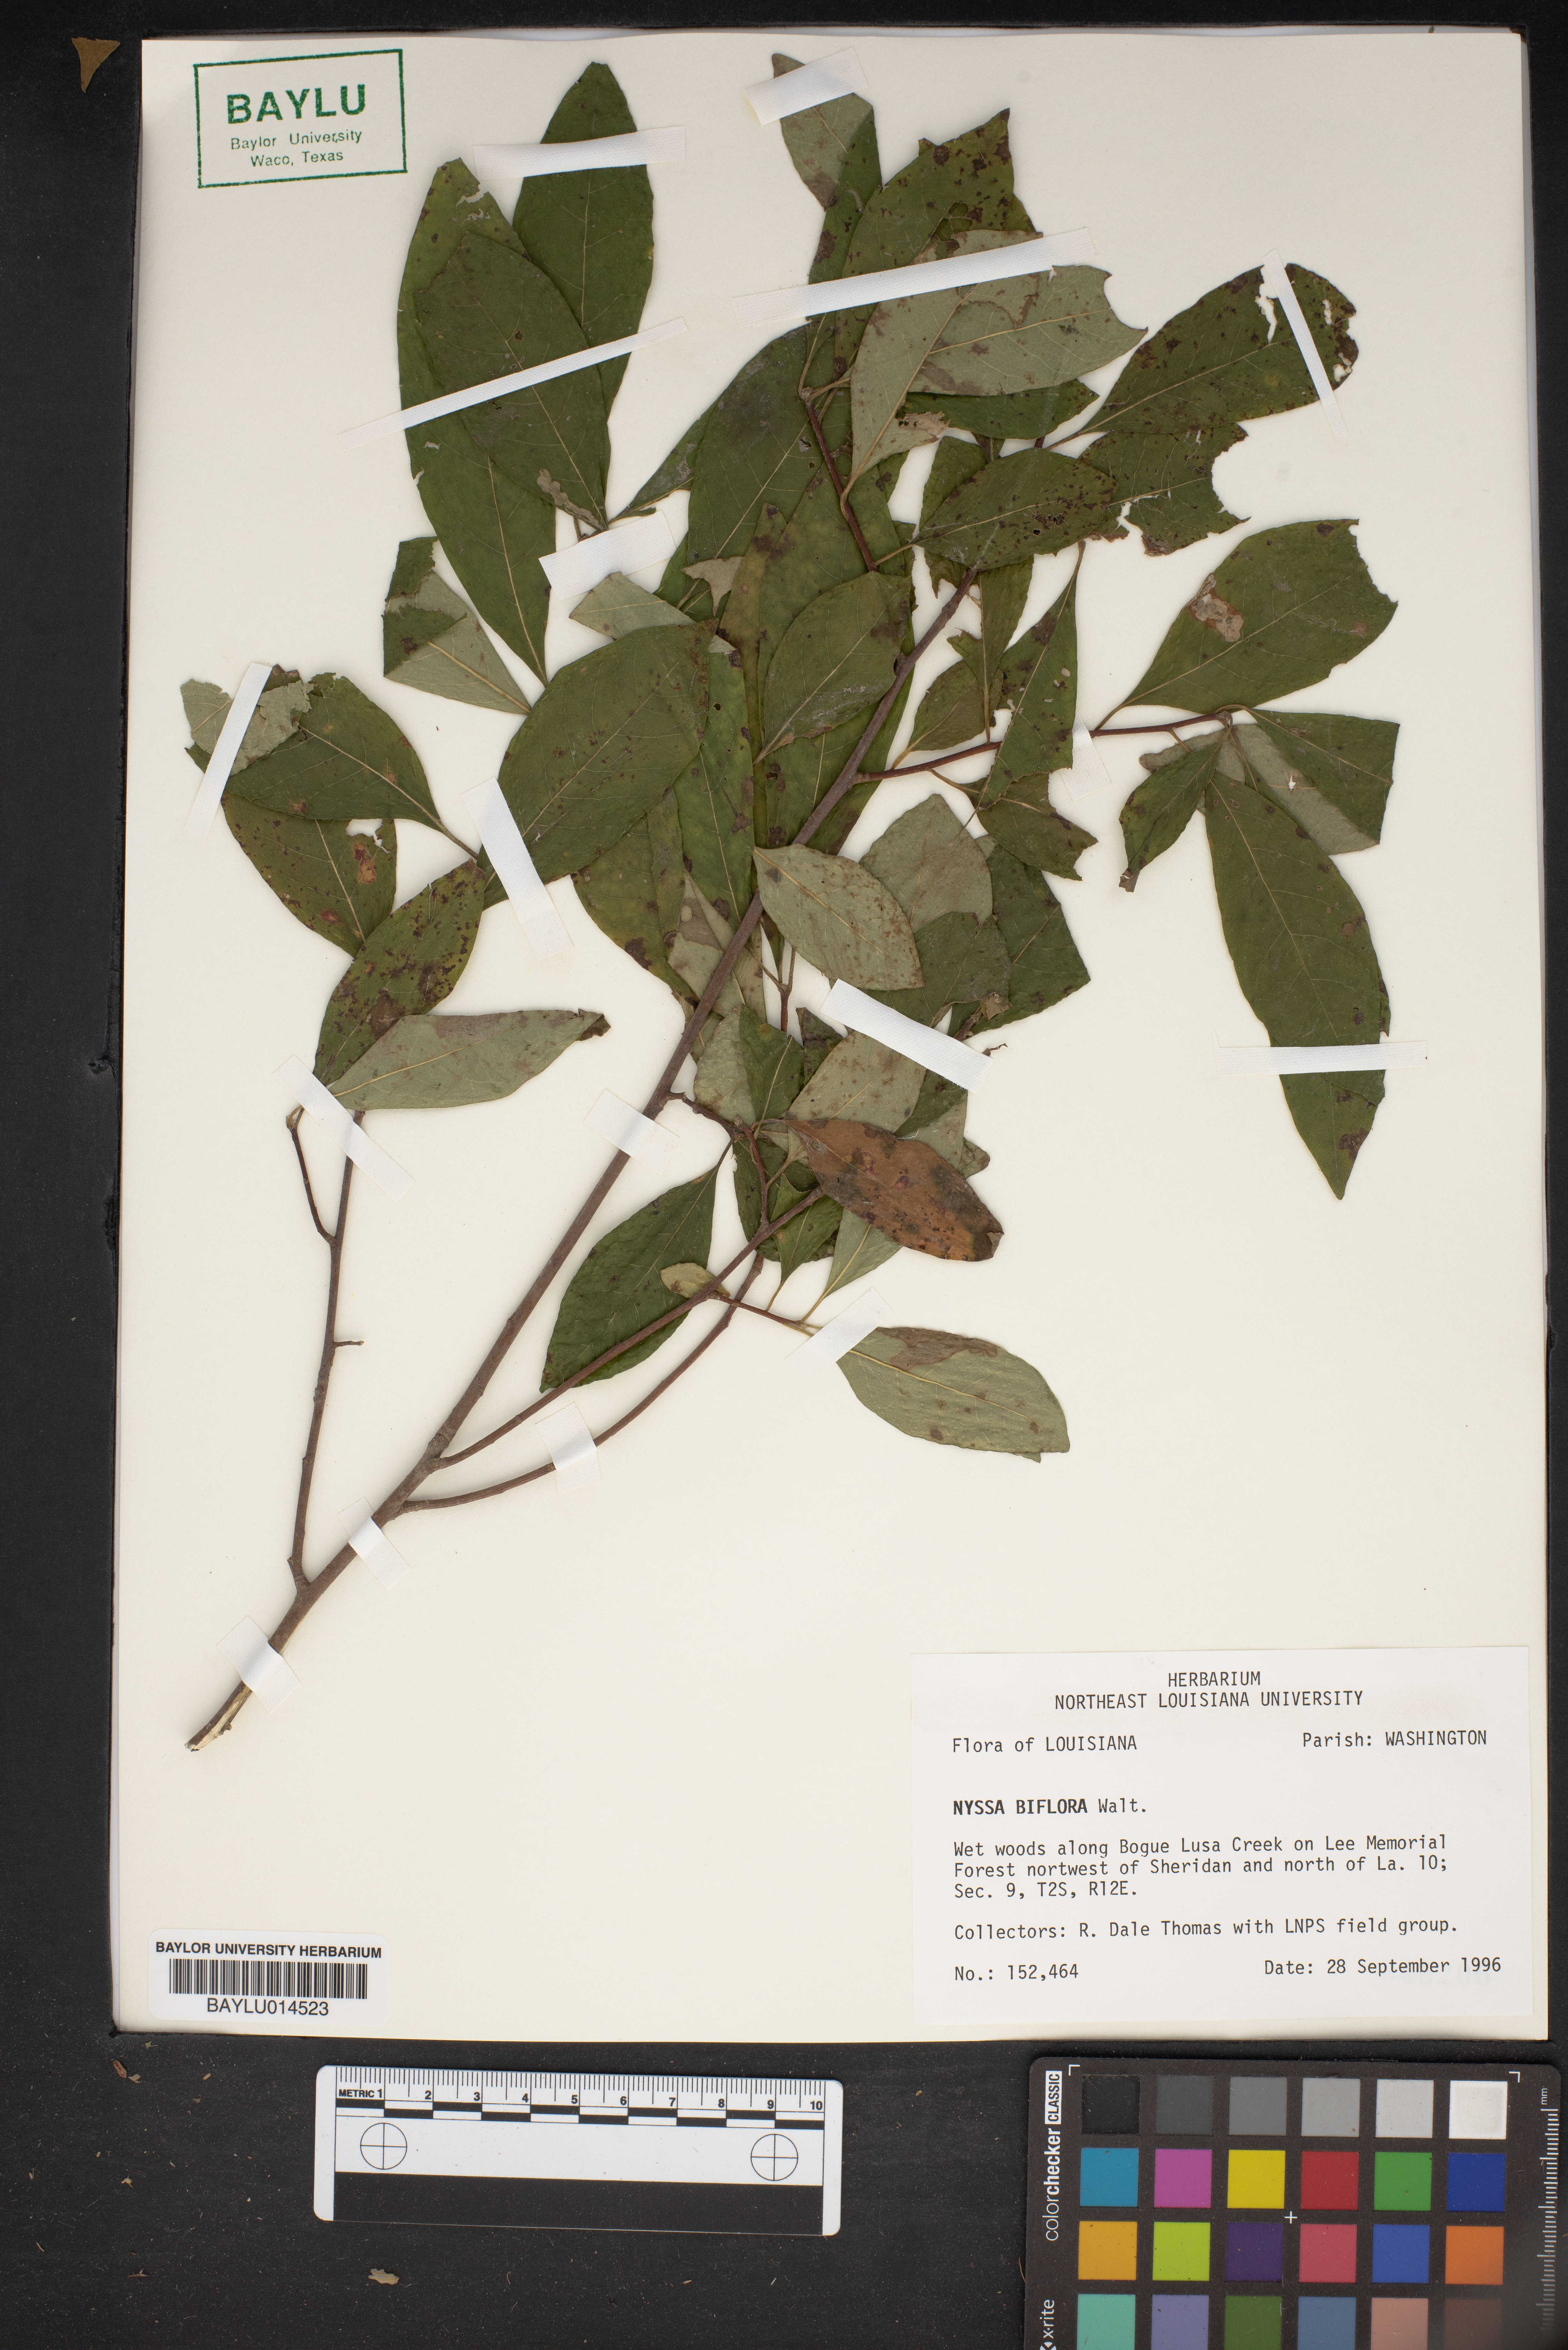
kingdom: Plantae
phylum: Tracheophyta
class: Magnoliopsida
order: Cornales
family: Nyssaceae
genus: Nyssa
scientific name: Nyssa biflora
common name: Swamp blackgum
